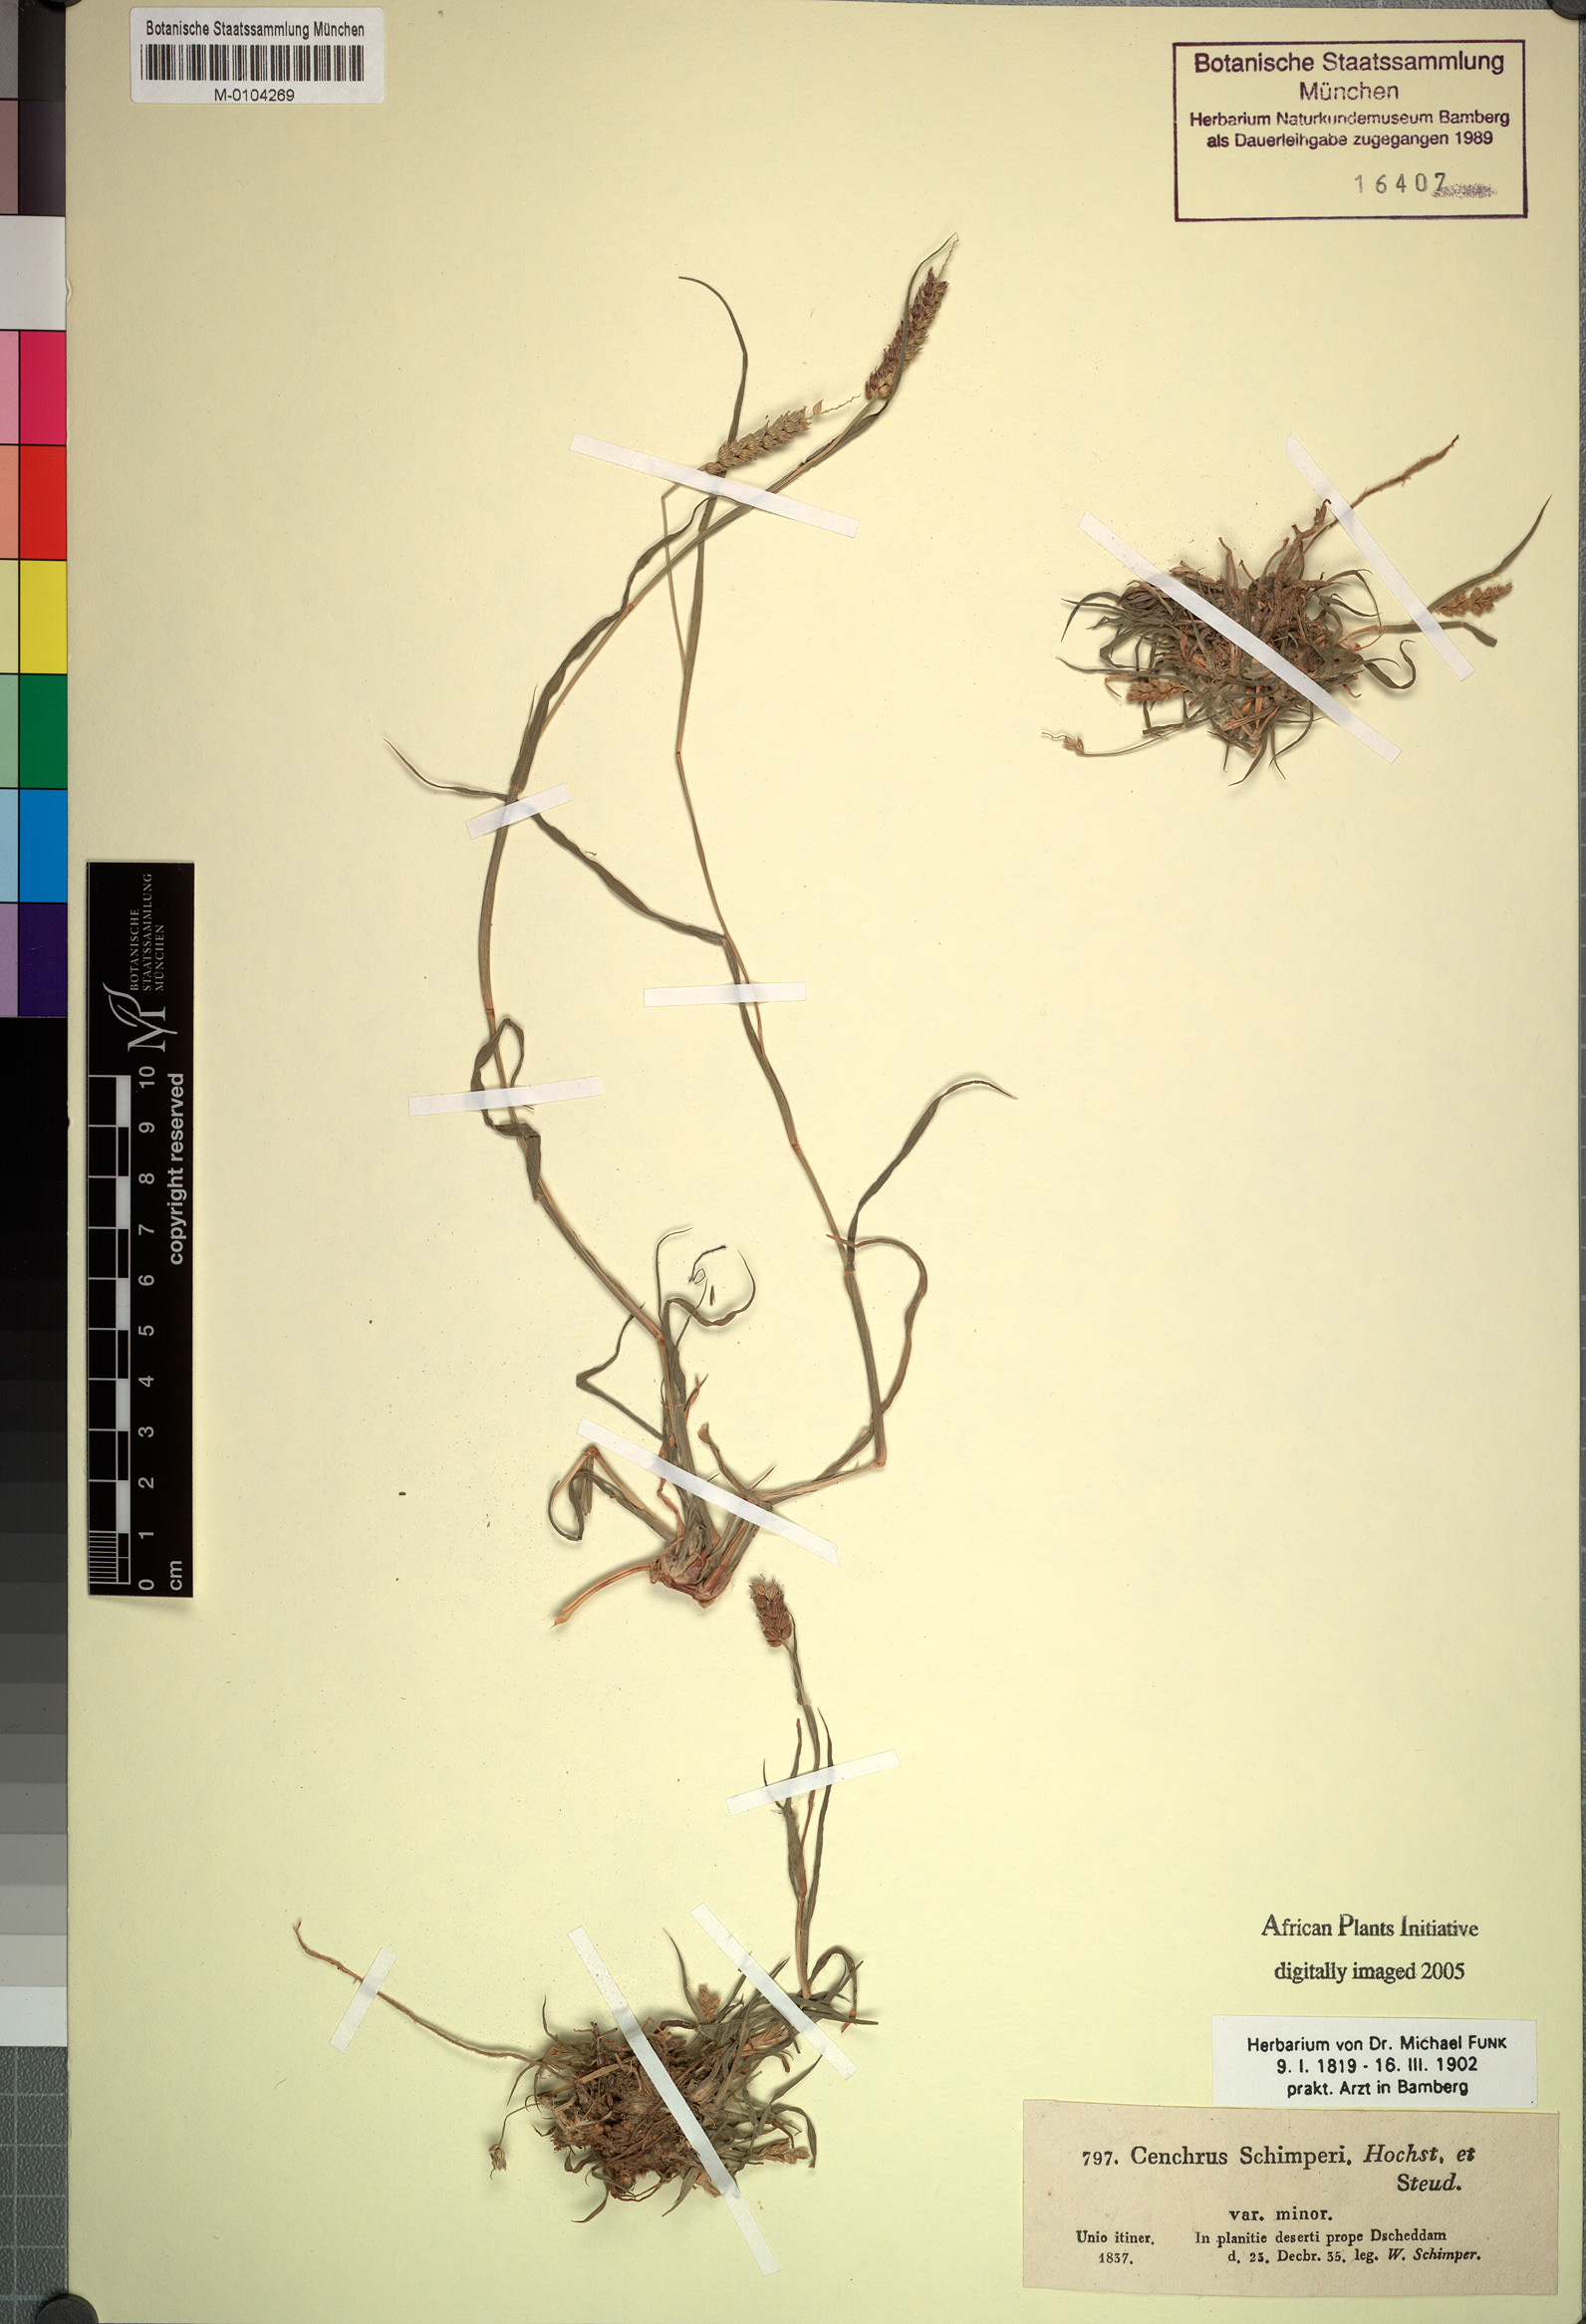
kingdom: Plantae
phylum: Tracheophyta
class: Liliopsida
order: Poales
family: Poaceae
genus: Cenchrus
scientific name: Cenchrus setigerus
